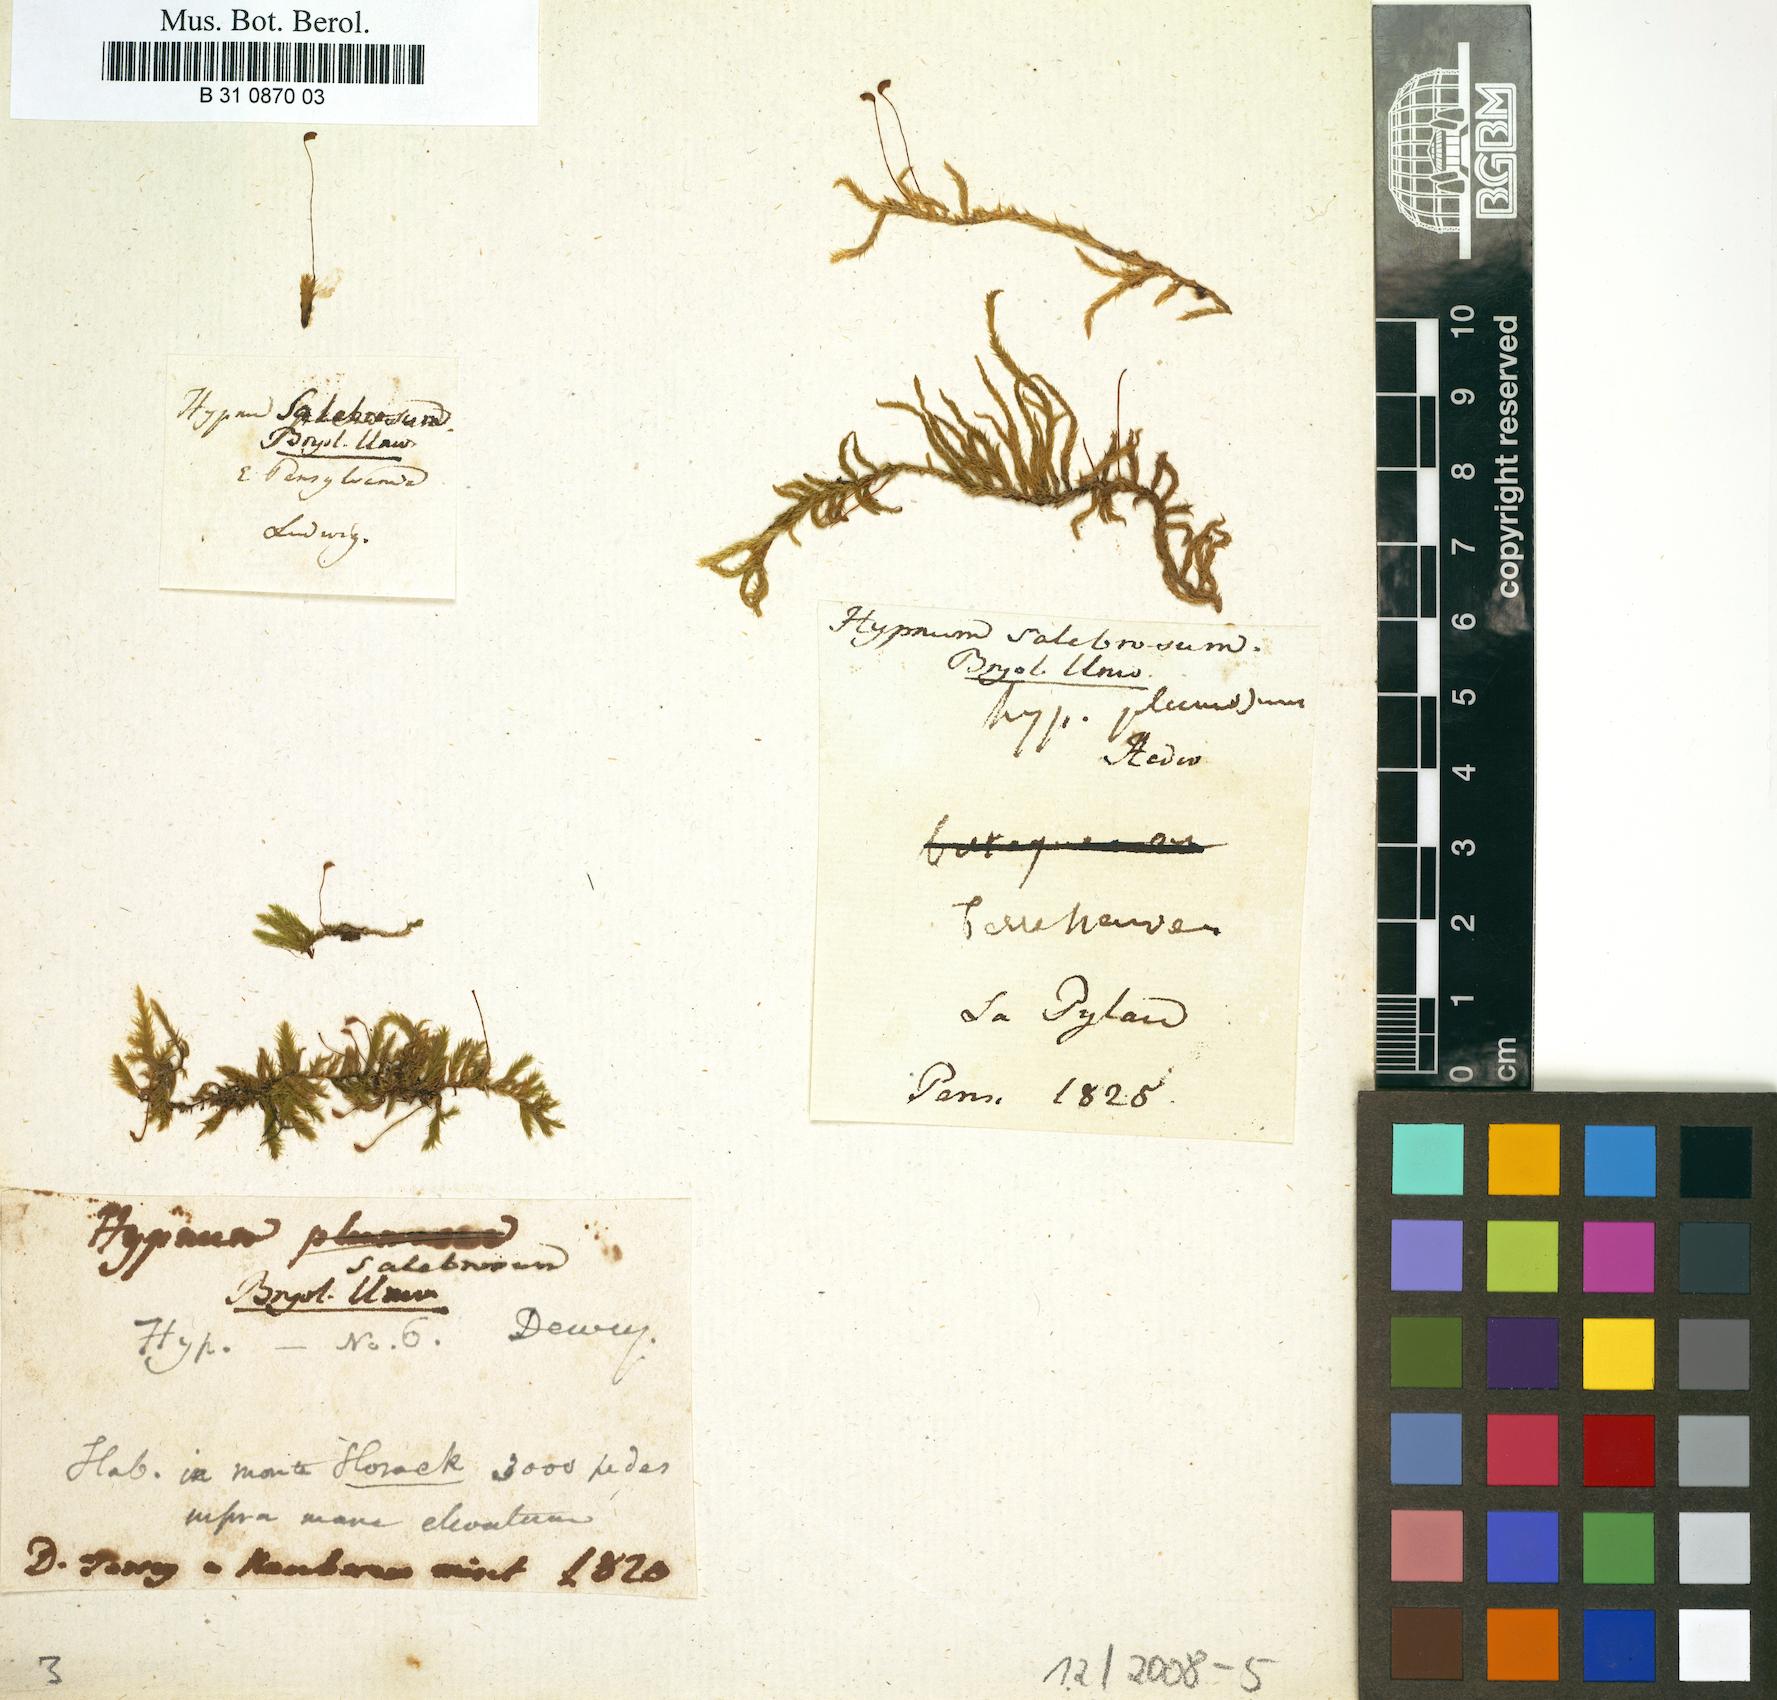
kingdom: Plantae
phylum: Bryophyta
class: Bryopsida
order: Hypnales
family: Brachytheciaceae
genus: Brachythecium
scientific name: Brachythecium salebrosum
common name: Smooth-stalk feather-moss
